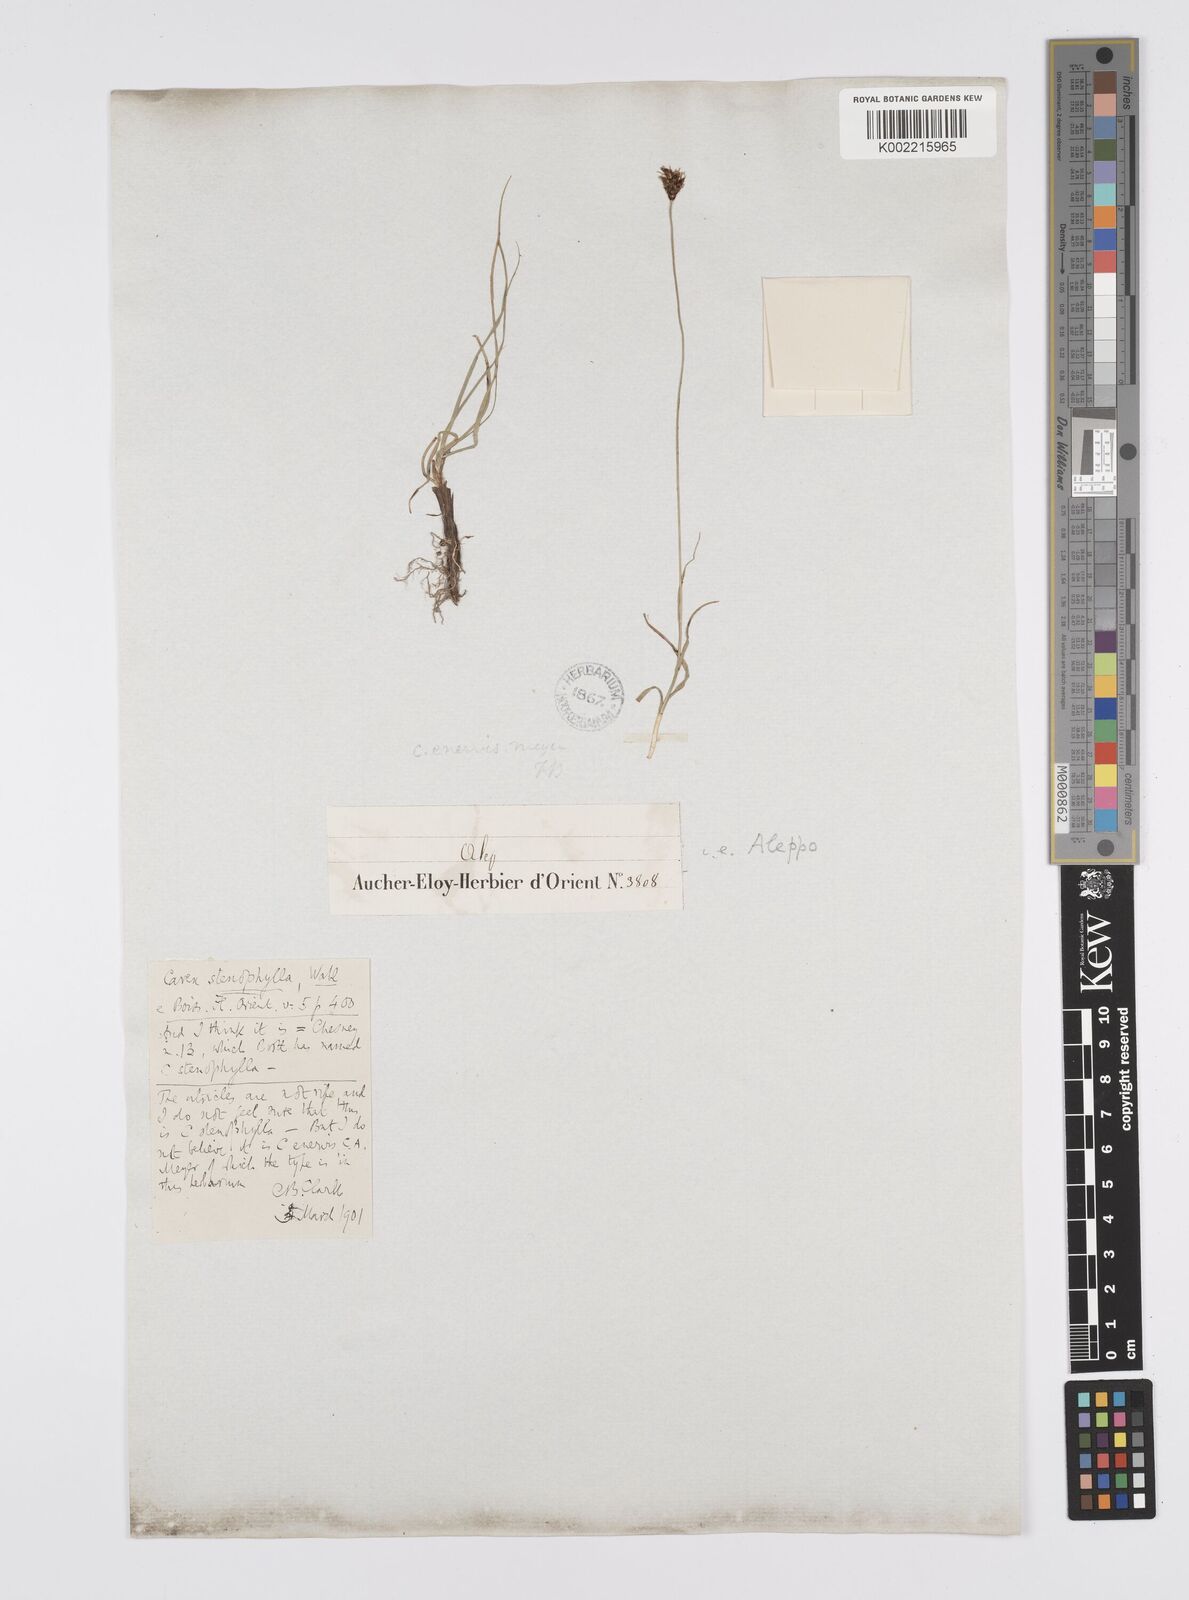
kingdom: Plantae
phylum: Tracheophyta
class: Liliopsida
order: Poales
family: Cyperaceae
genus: Carex
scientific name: Carex pachystylis
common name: Thick-stem sedge
